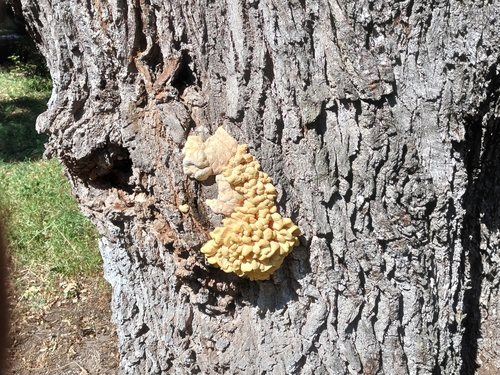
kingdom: Fungi
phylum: Basidiomycota
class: Agaricomycetes
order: Polyporales
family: Laetiporaceae
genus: Laetiporus
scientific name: Laetiporus sulphureus
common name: Chicken of the woods
